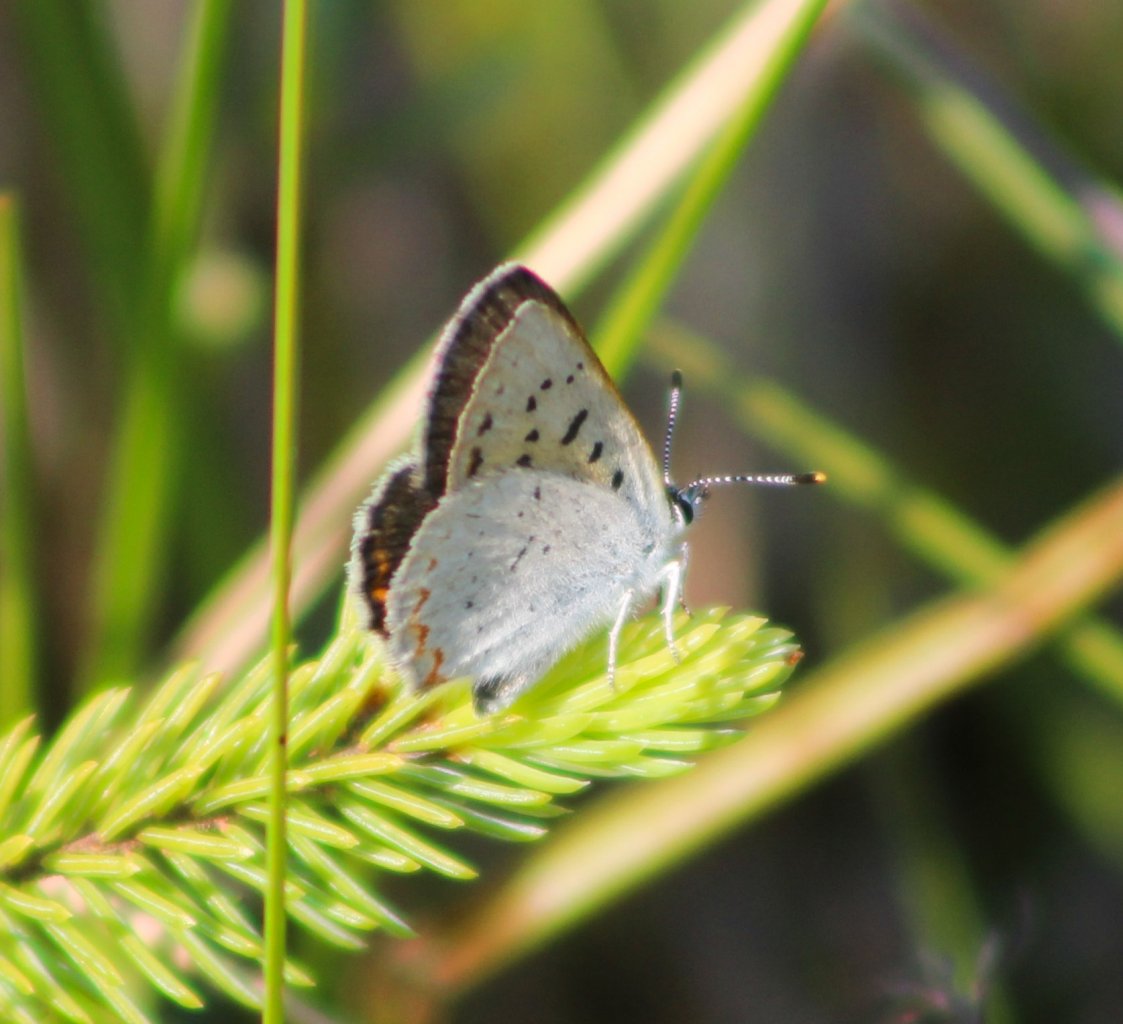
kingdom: Animalia
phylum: Arthropoda
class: Insecta
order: Lepidoptera
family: Sesiidae
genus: Sesia
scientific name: Sesia Lycaena epixanthe
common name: Bog Copper
